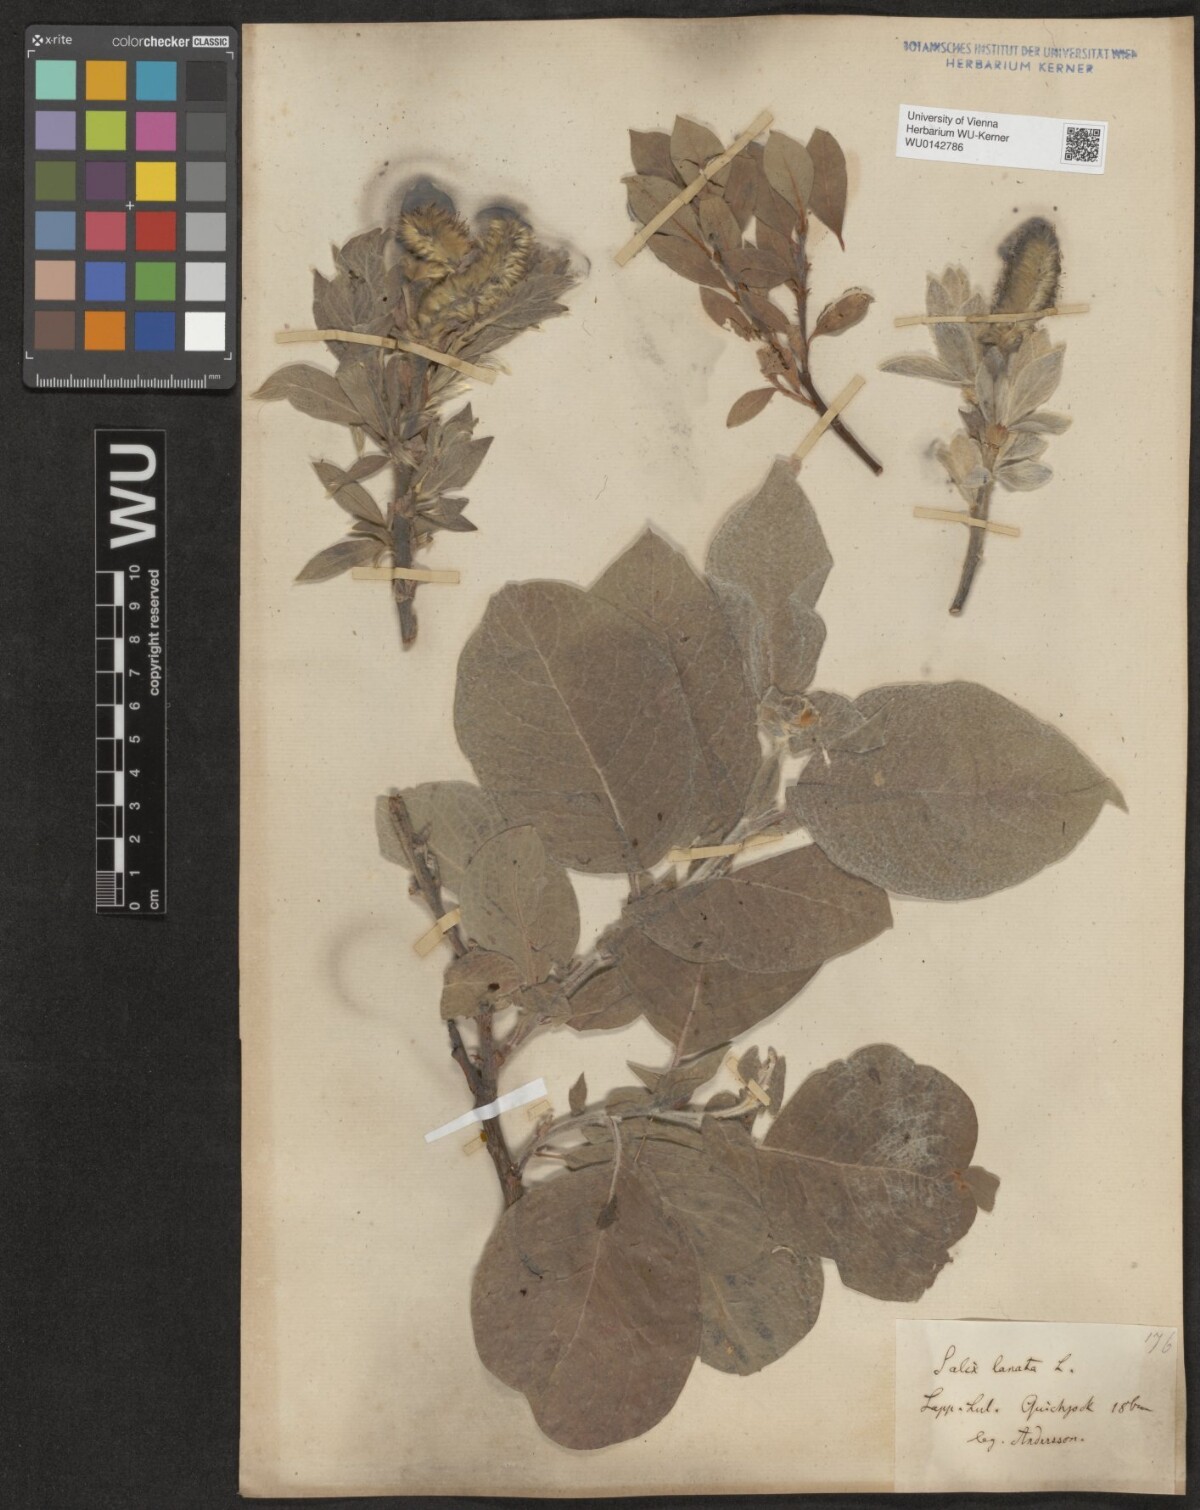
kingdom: Plantae
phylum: Tracheophyta
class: Magnoliopsida
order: Malpighiales
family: Salicaceae
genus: Salix
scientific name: Salix lanata
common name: Woolly willow
